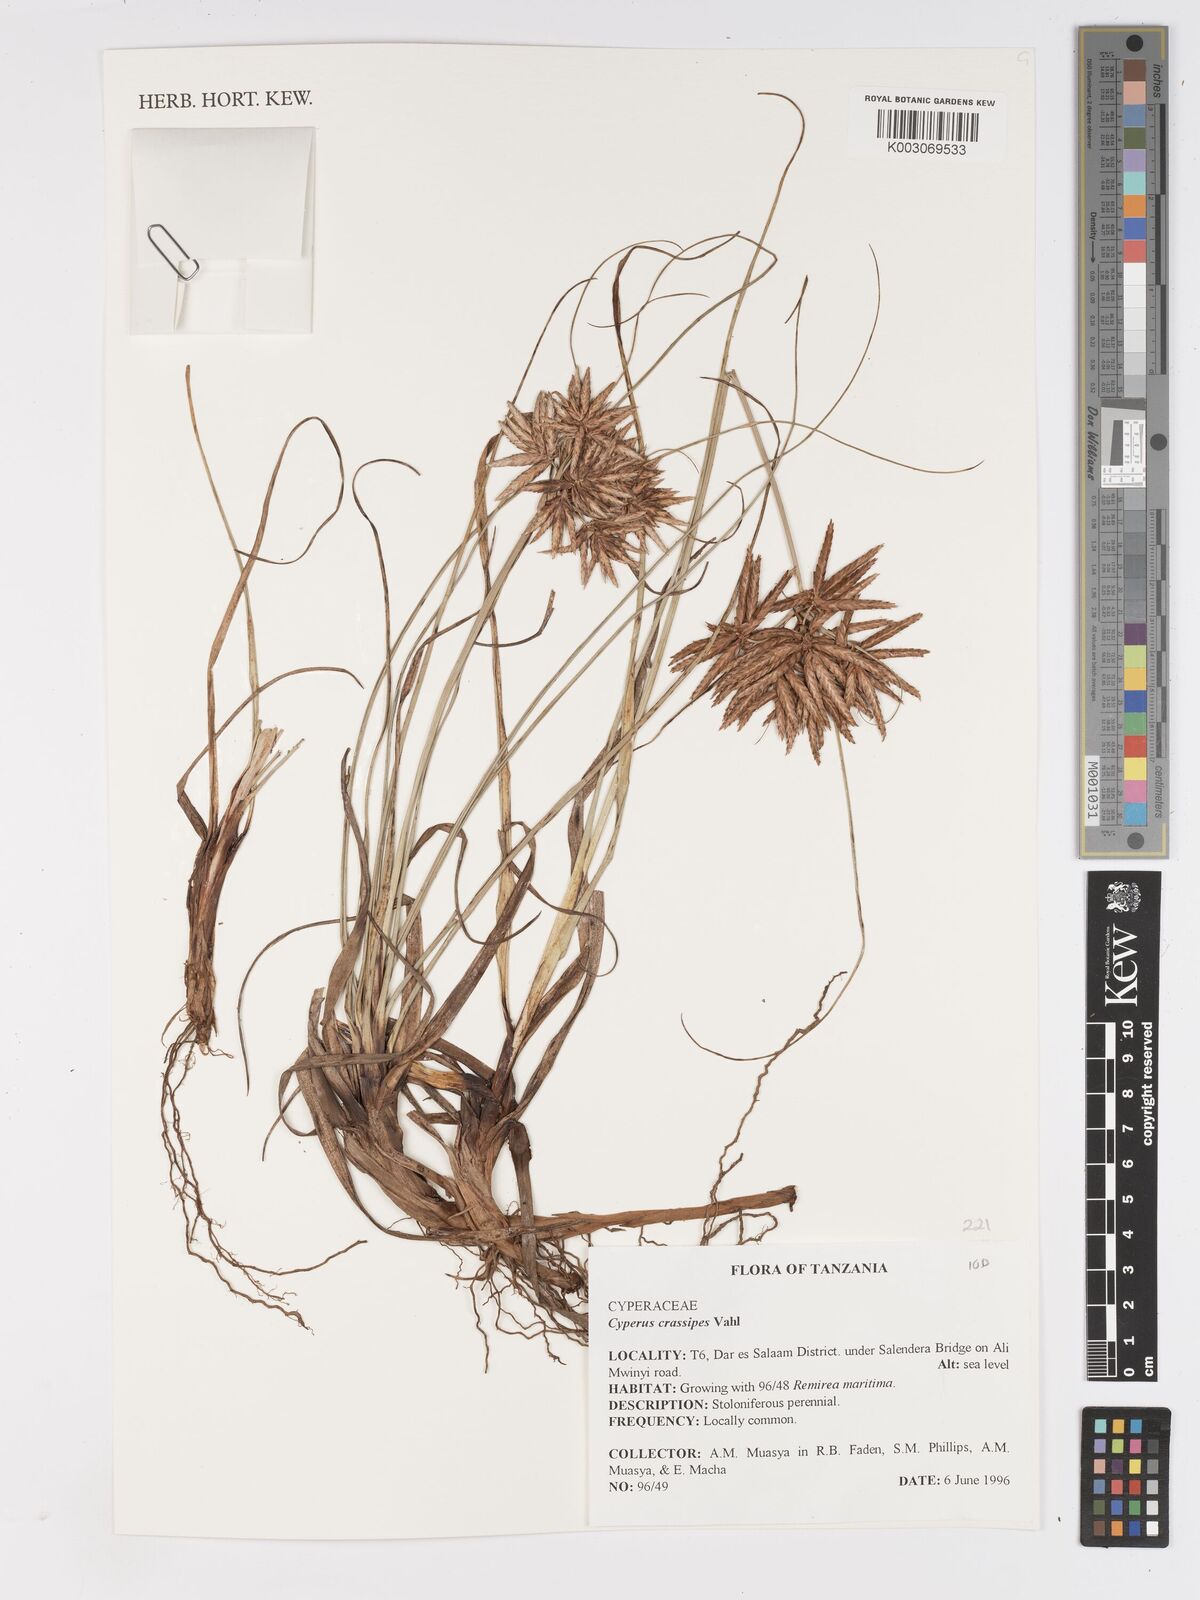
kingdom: Plantae
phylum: Tracheophyta
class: Liliopsida
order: Poales
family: Cyperaceae
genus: Cyperus
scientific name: Cyperus crassipes
